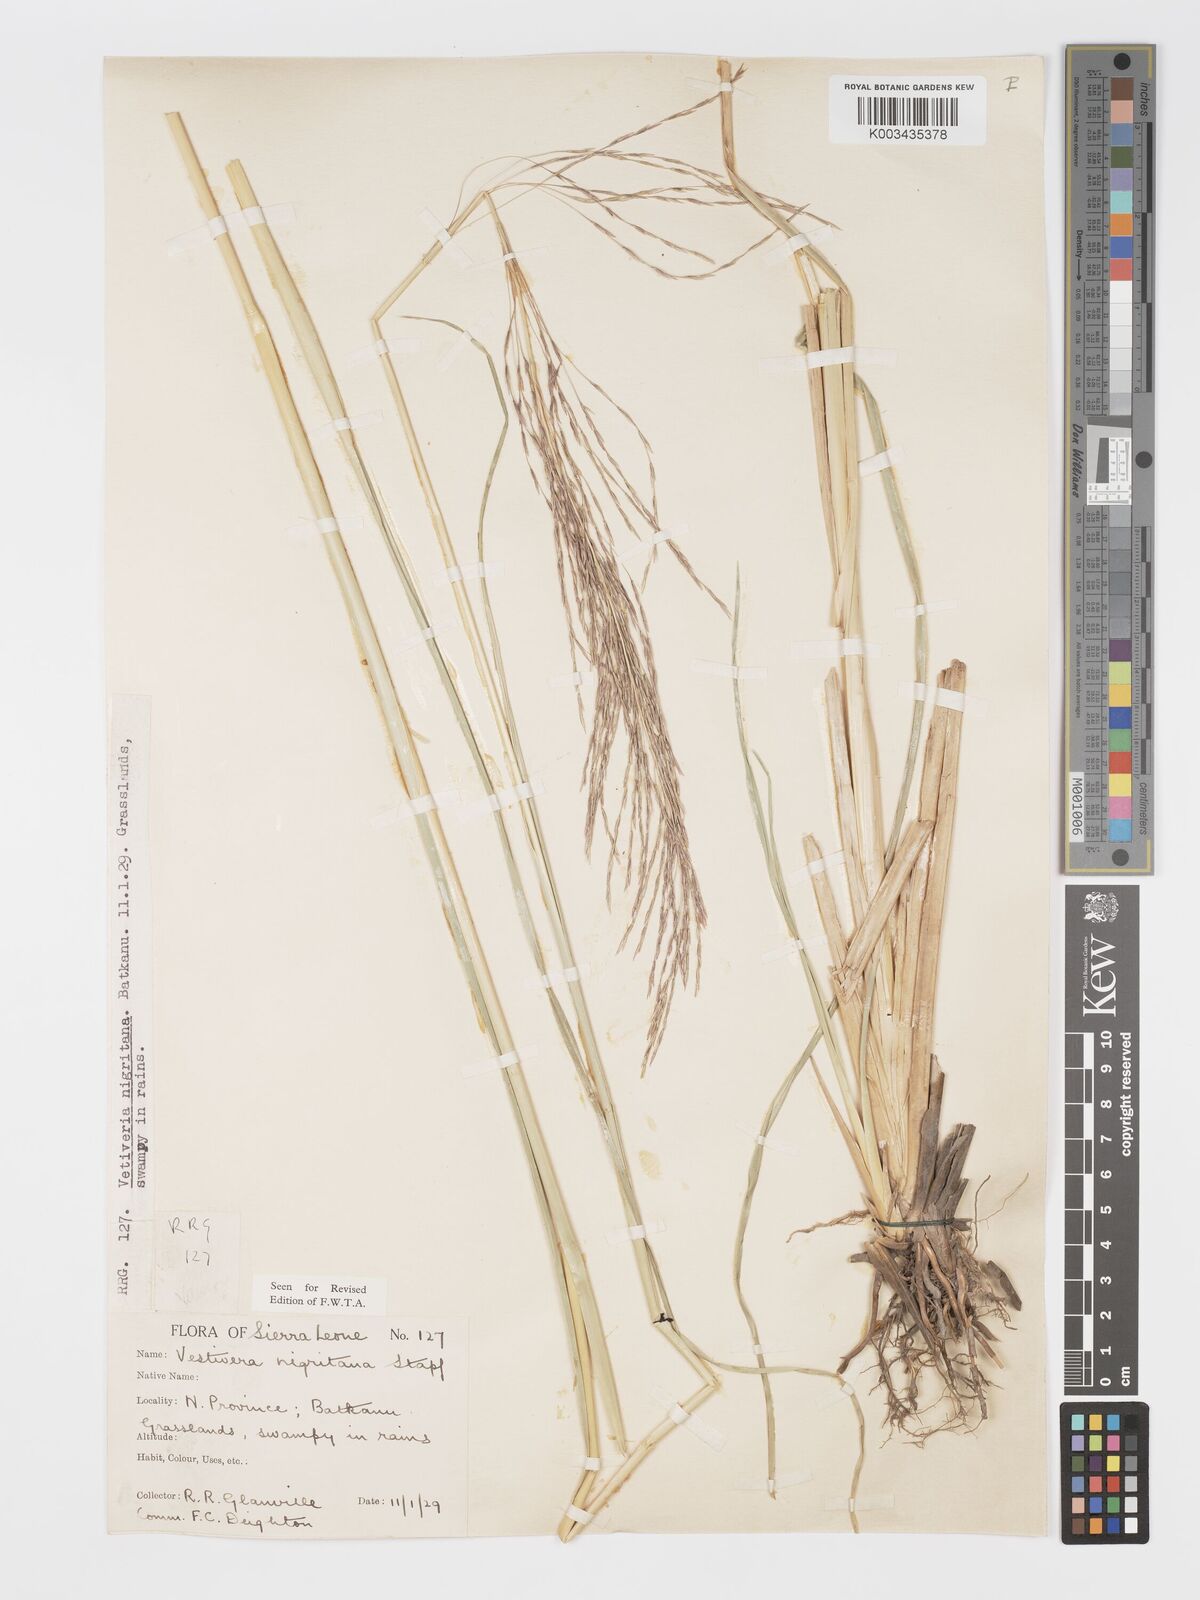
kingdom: Plantae
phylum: Tracheophyta
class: Liliopsida
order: Poales
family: Poaceae
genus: Chrysopogon
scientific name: Chrysopogon nigritanus
